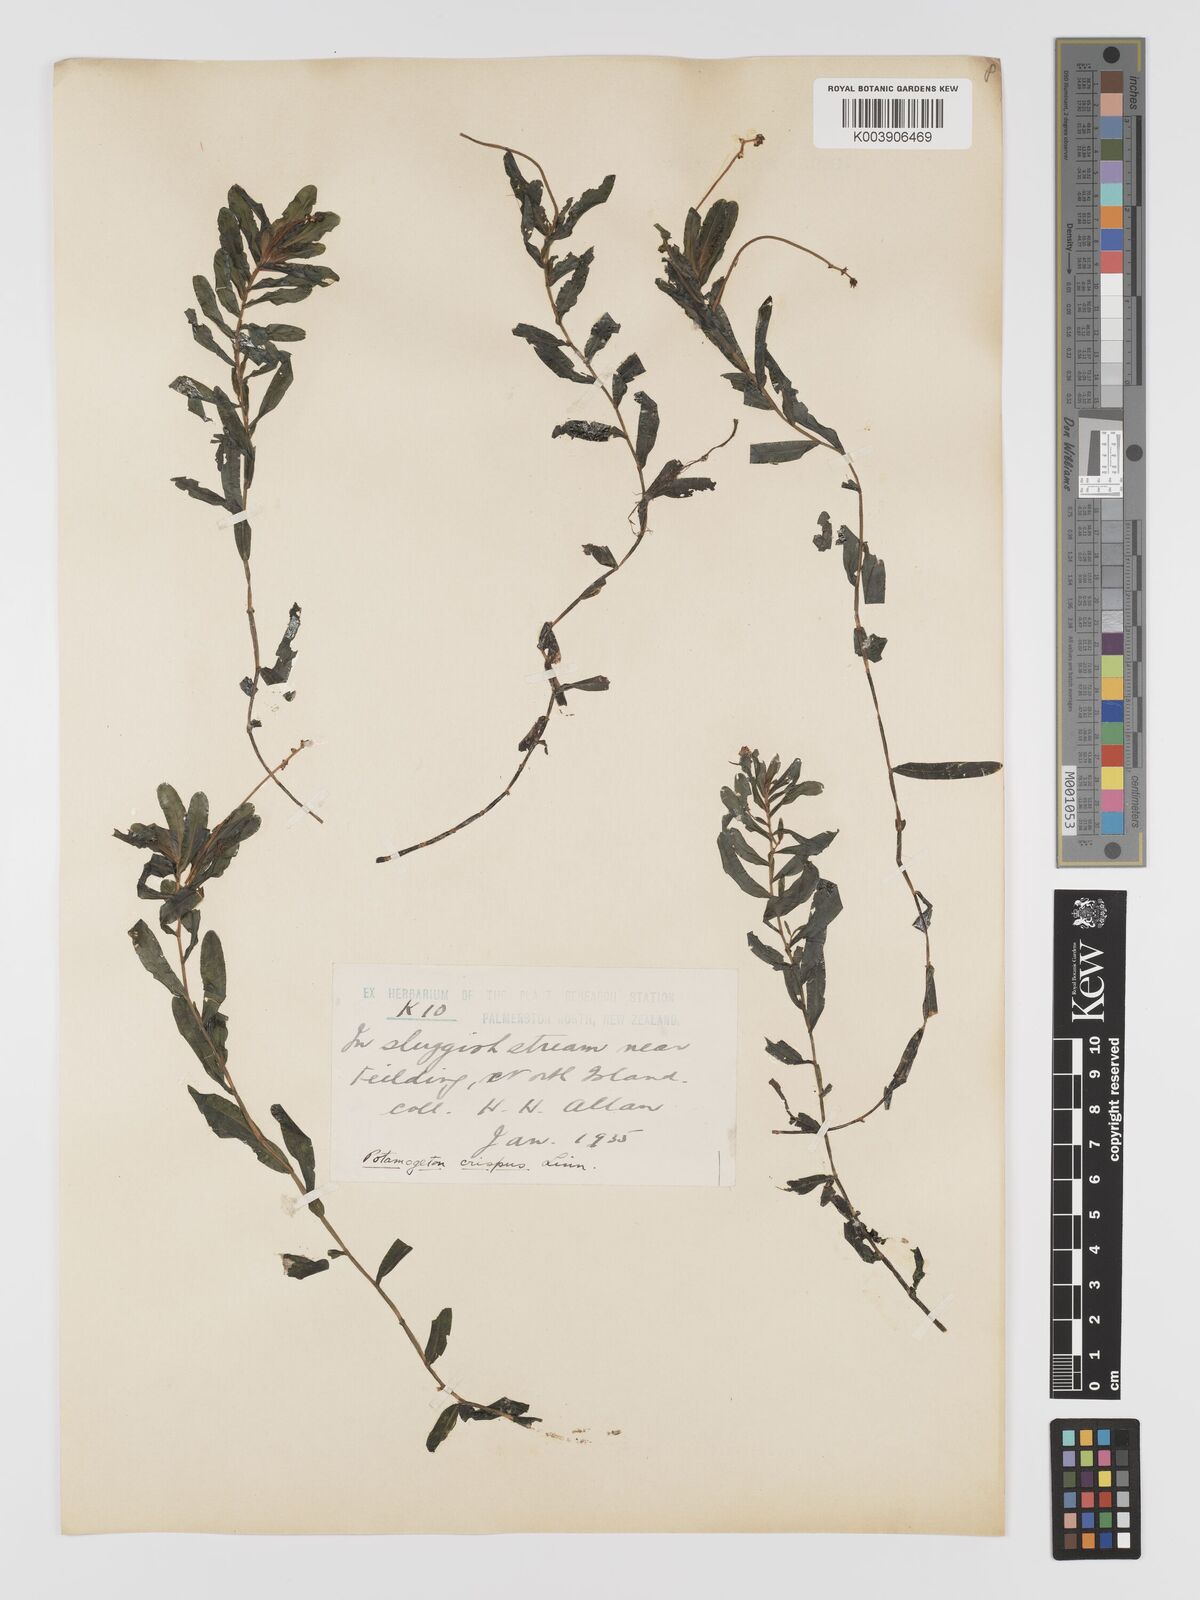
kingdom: Plantae
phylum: Tracheophyta
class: Liliopsida
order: Alismatales
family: Potamogetonaceae
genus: Potamogeton
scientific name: Potamogeton crispus
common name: Curled pondweed
